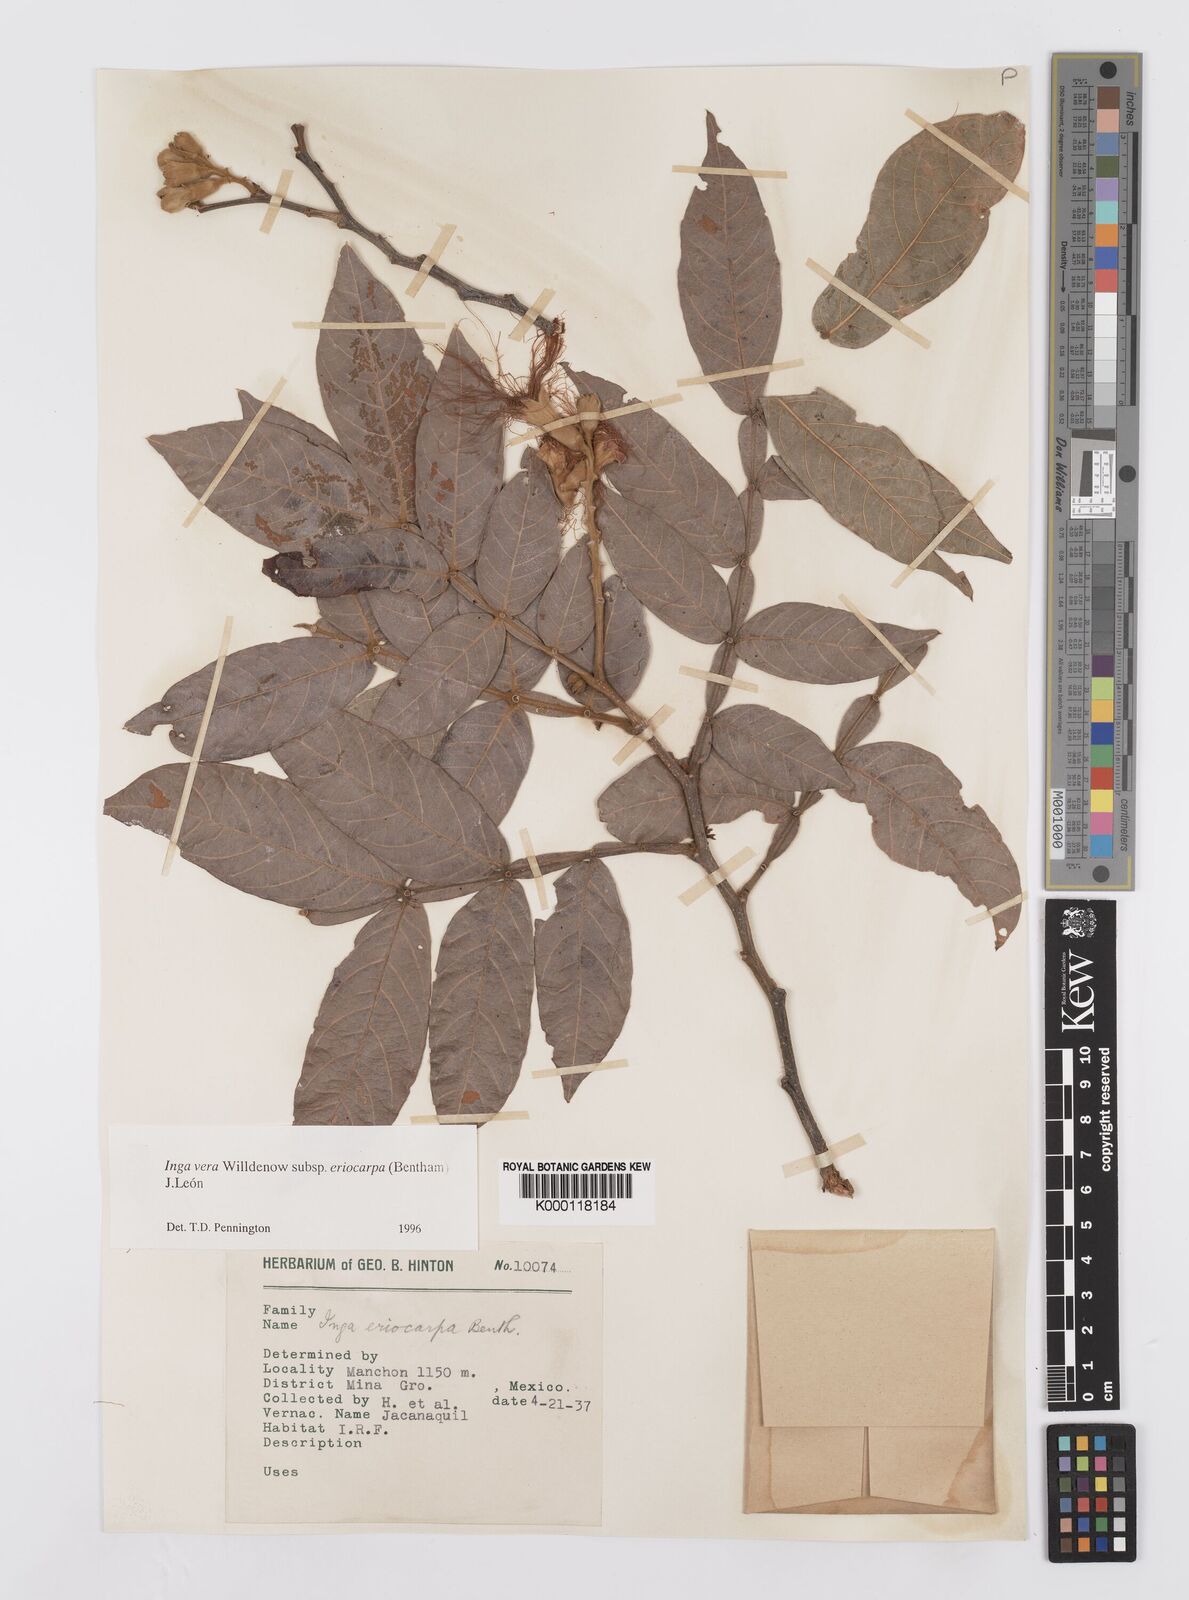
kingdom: Plantae
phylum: Tracheophyta
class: Magnoliopsida
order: Fabales
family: Fabaceae
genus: Inga
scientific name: Inga vera
